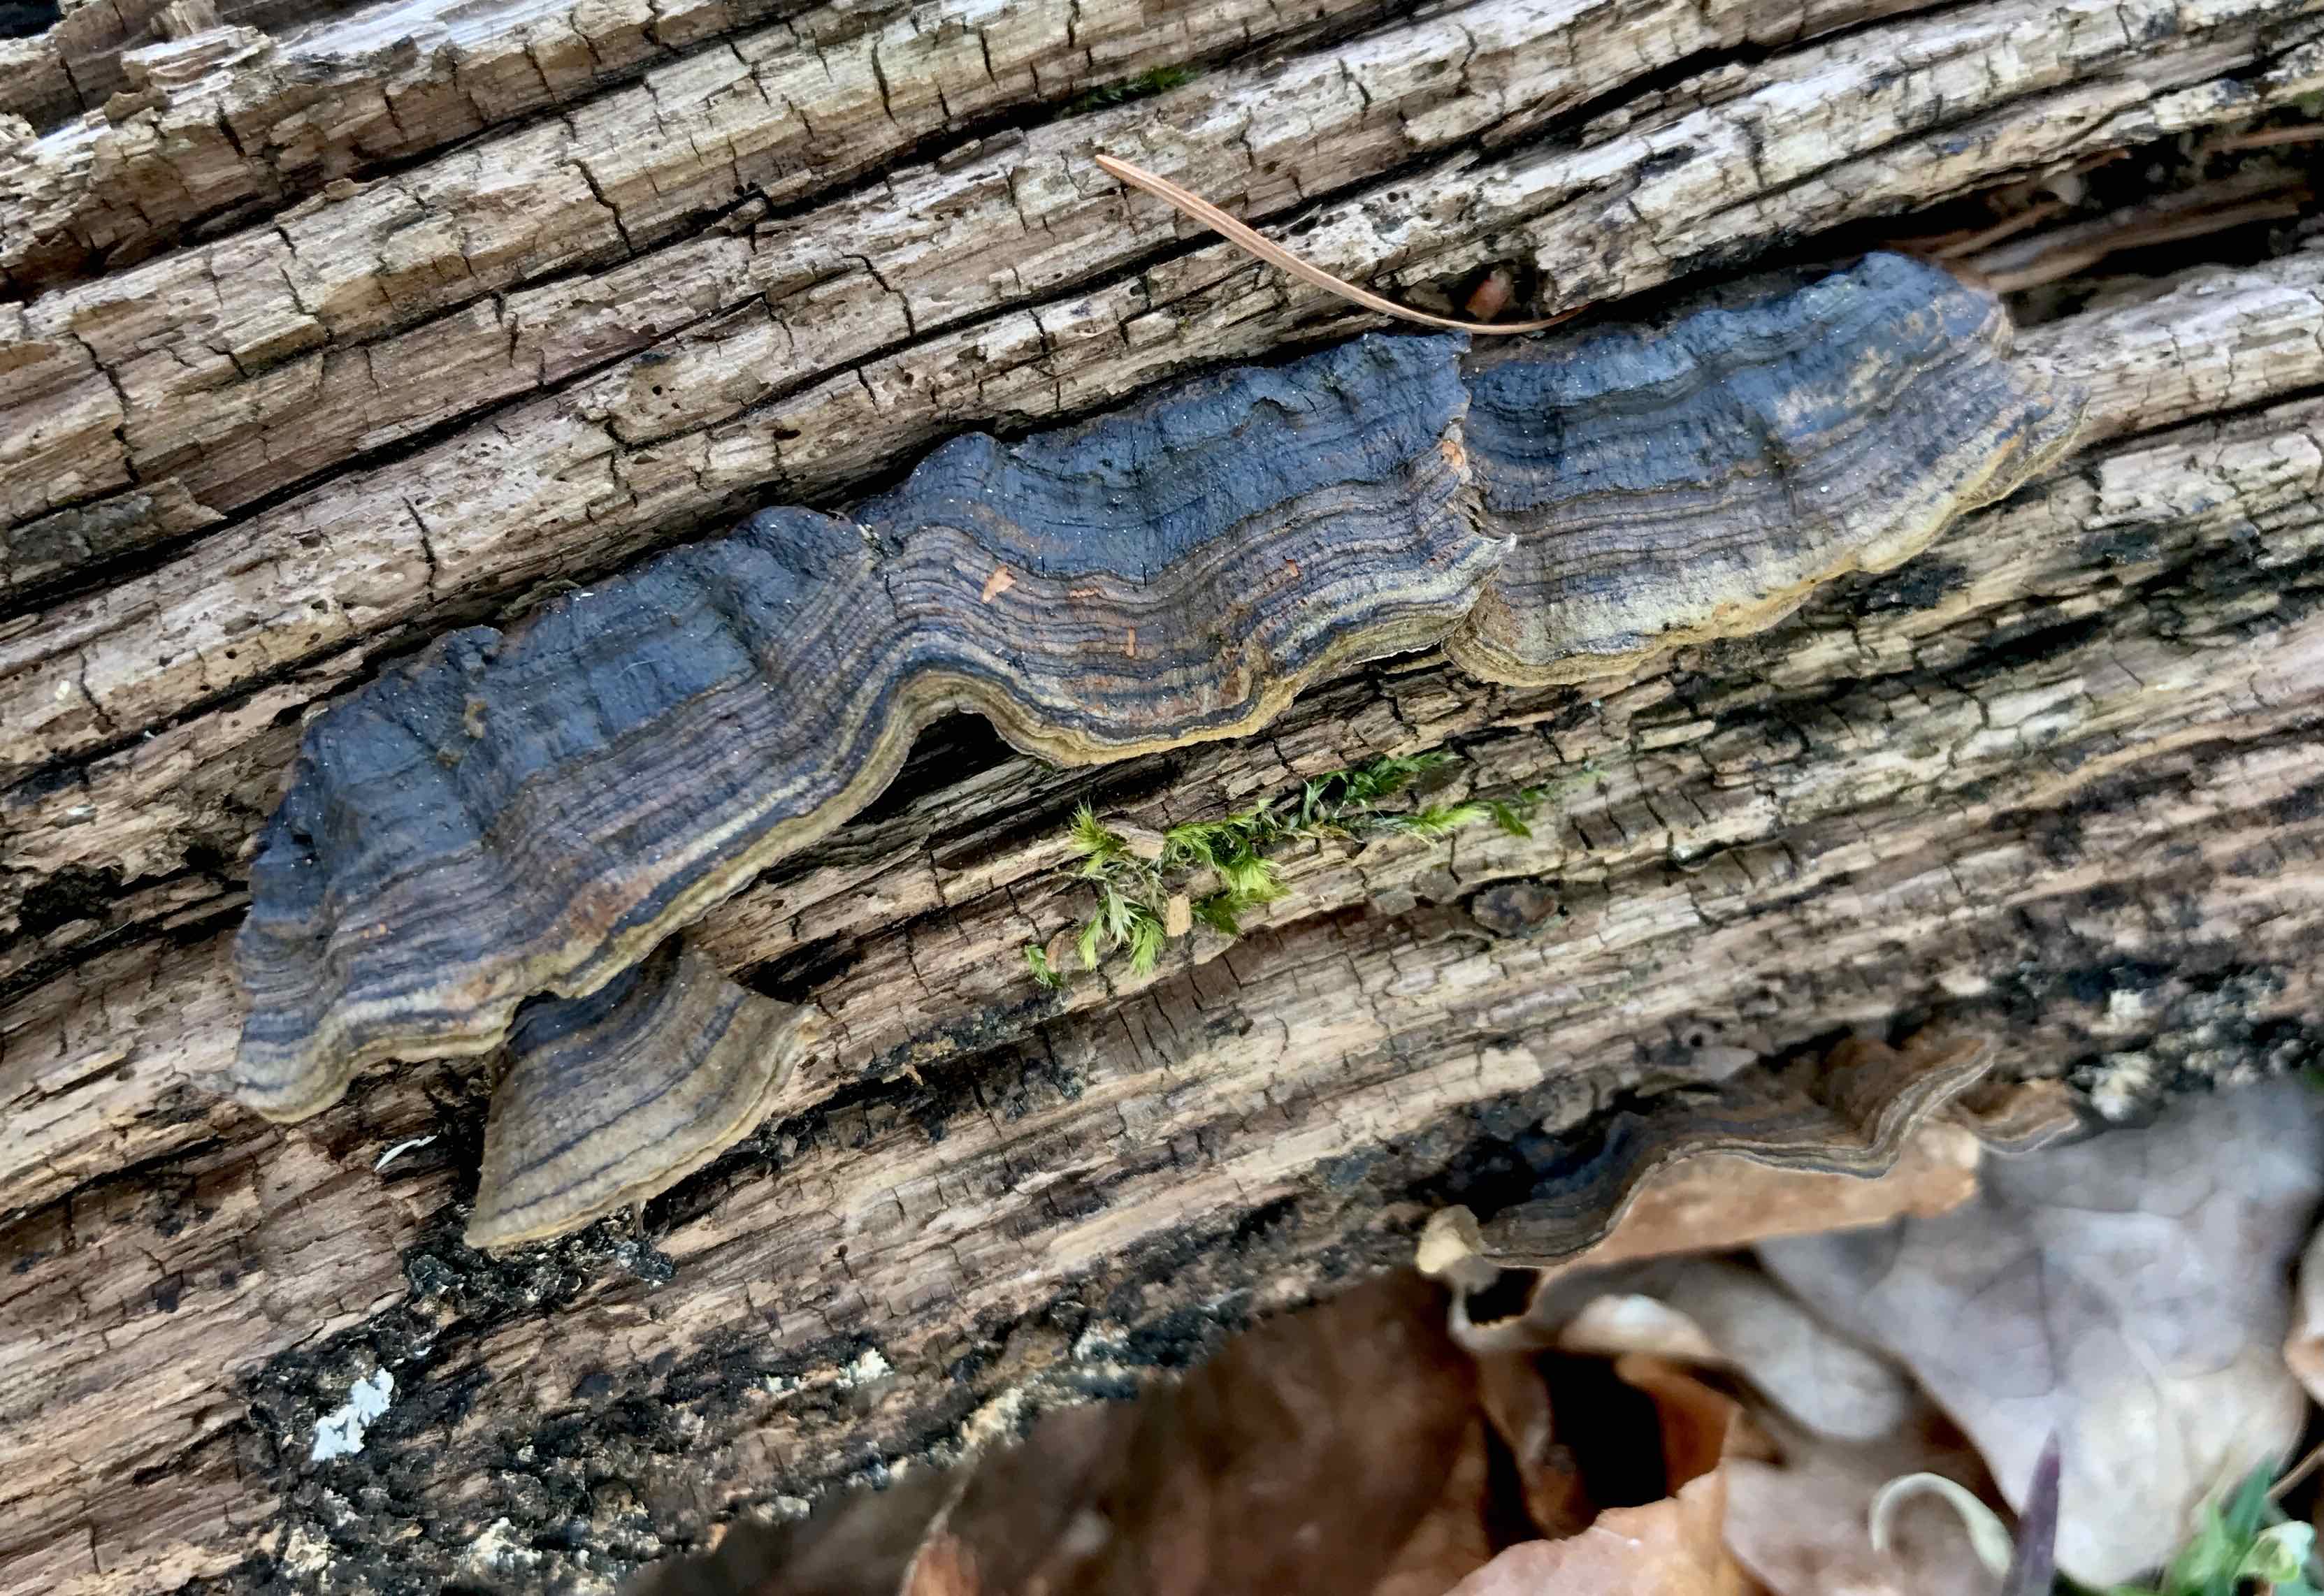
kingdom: Fungi
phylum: Basidiomycota
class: Agaricomycetes
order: Hymenochaetales
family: Hymenochaetaceae
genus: Hymenochaete
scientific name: Hymenochaete rubiginosa
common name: stiv ruslædersvamp
